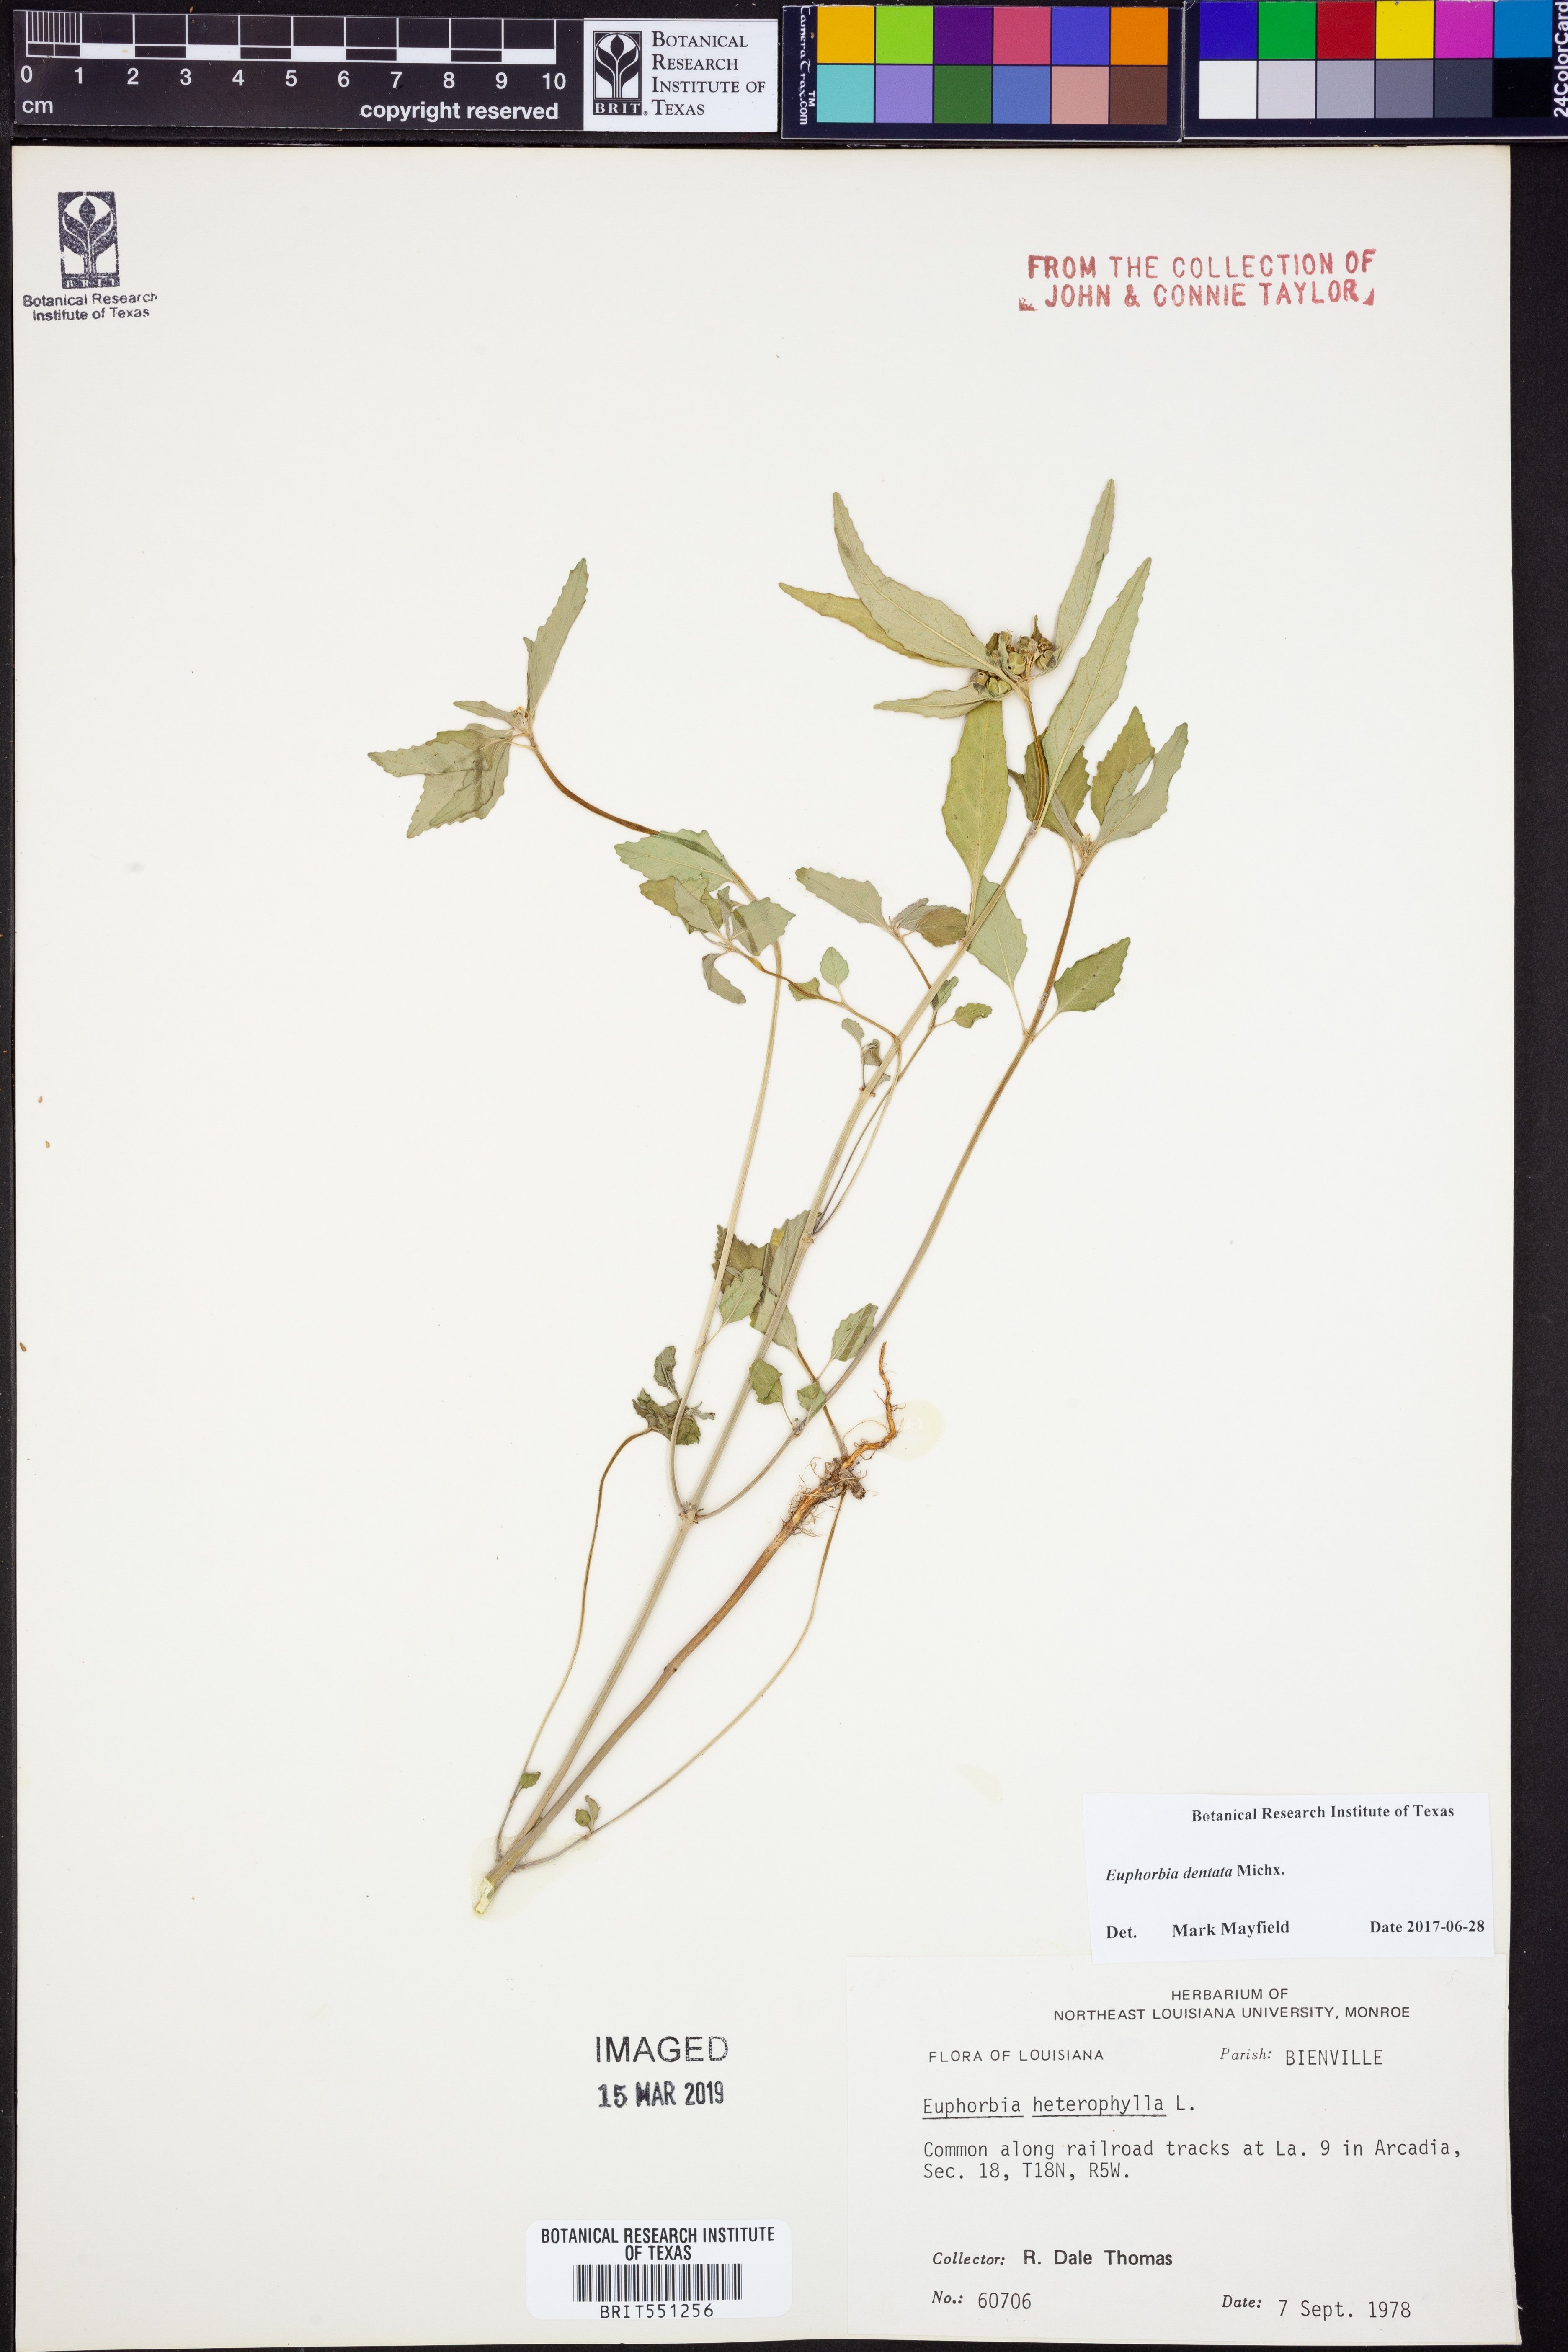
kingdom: Plantae
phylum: Tracheophyta
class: Magnoliopsida
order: Malpighiales
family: Euphorbiaceae
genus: Euphorbia
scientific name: Euphorbia dentata
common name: Dentate spurge
